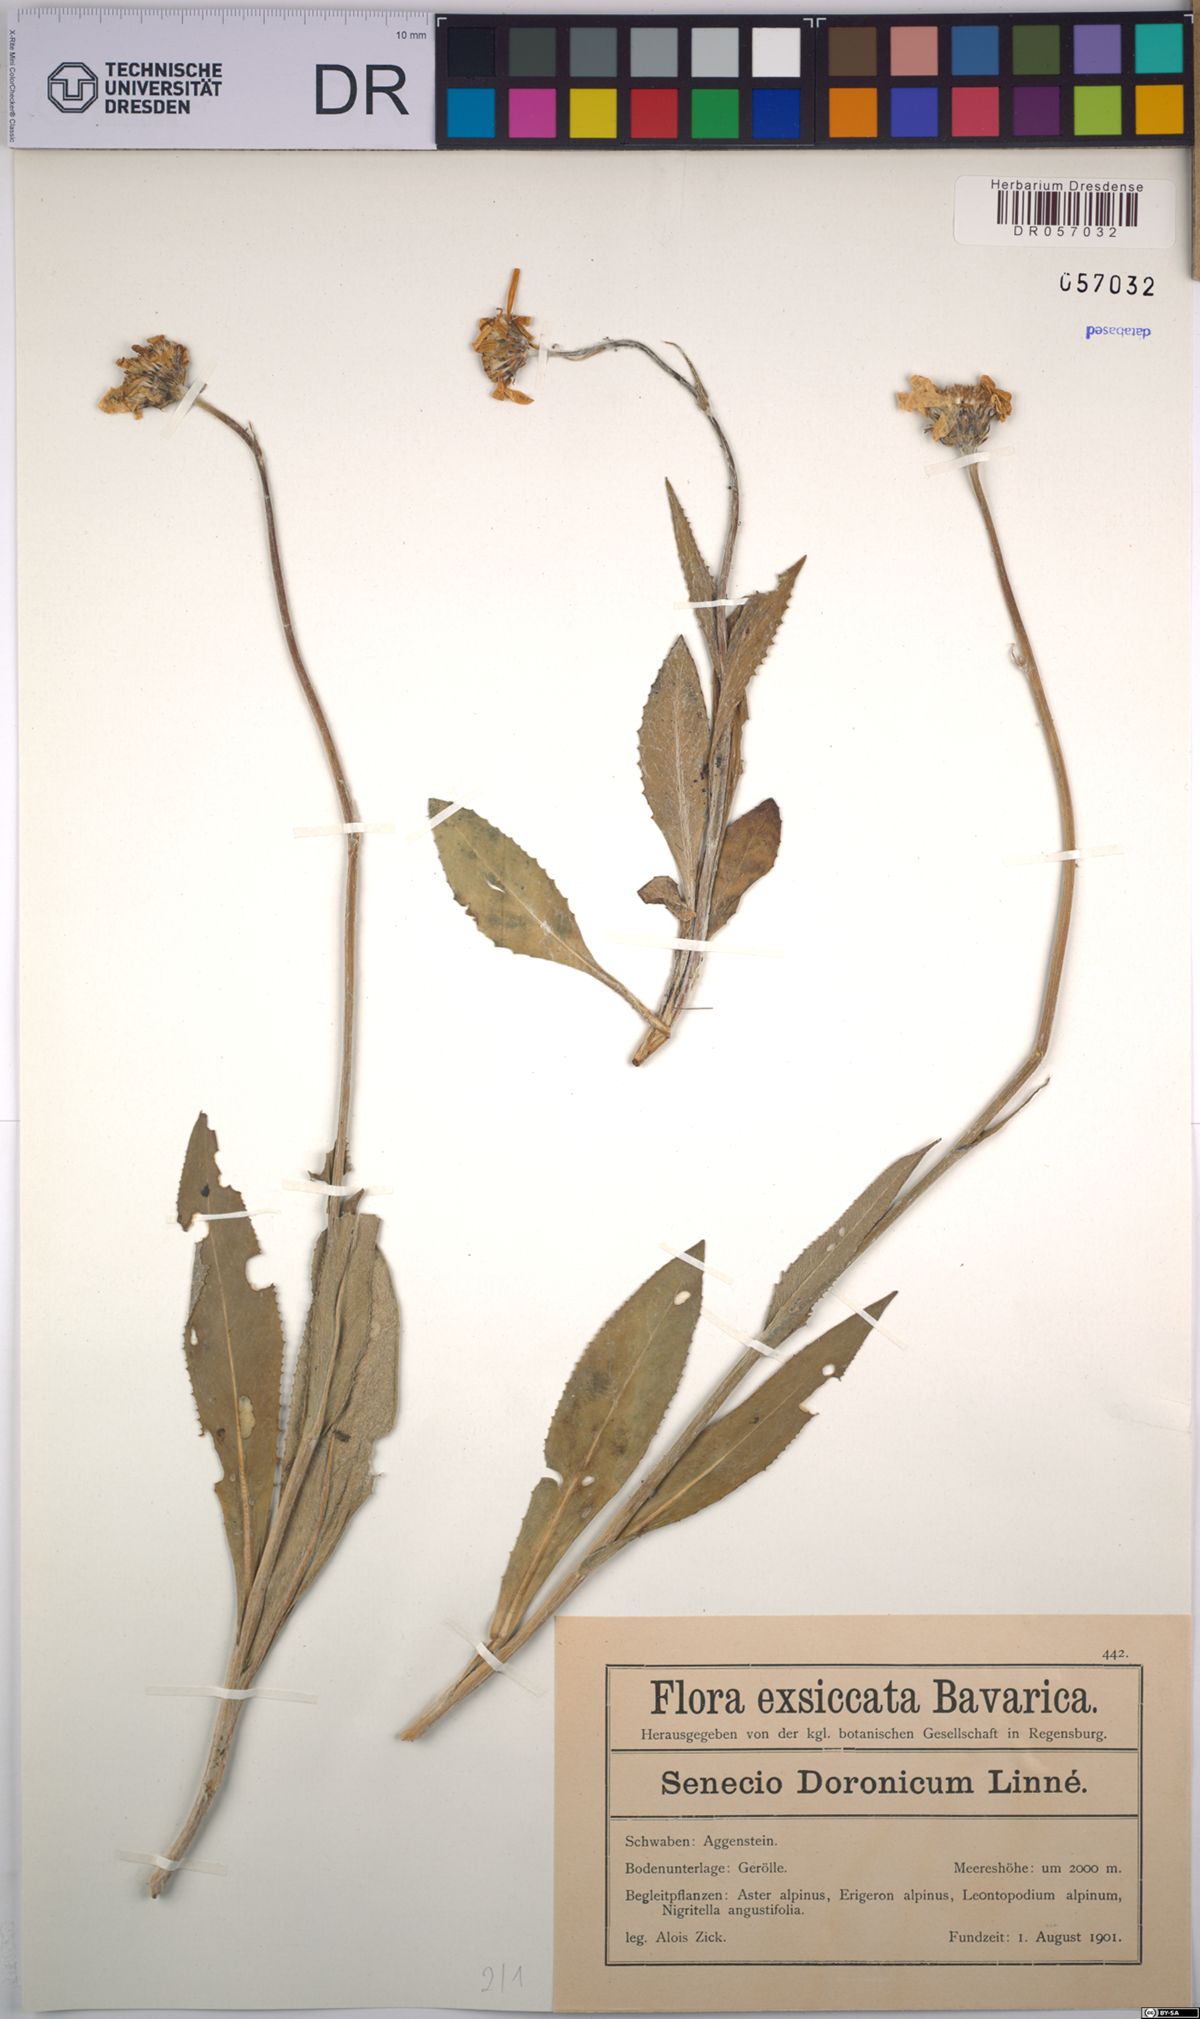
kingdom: Plantae
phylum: Tracheophyta
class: Magnoliopsida
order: Asterales
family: Asteraceae
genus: Senecio
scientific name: Senecio doronicum
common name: Chamois ragwort
